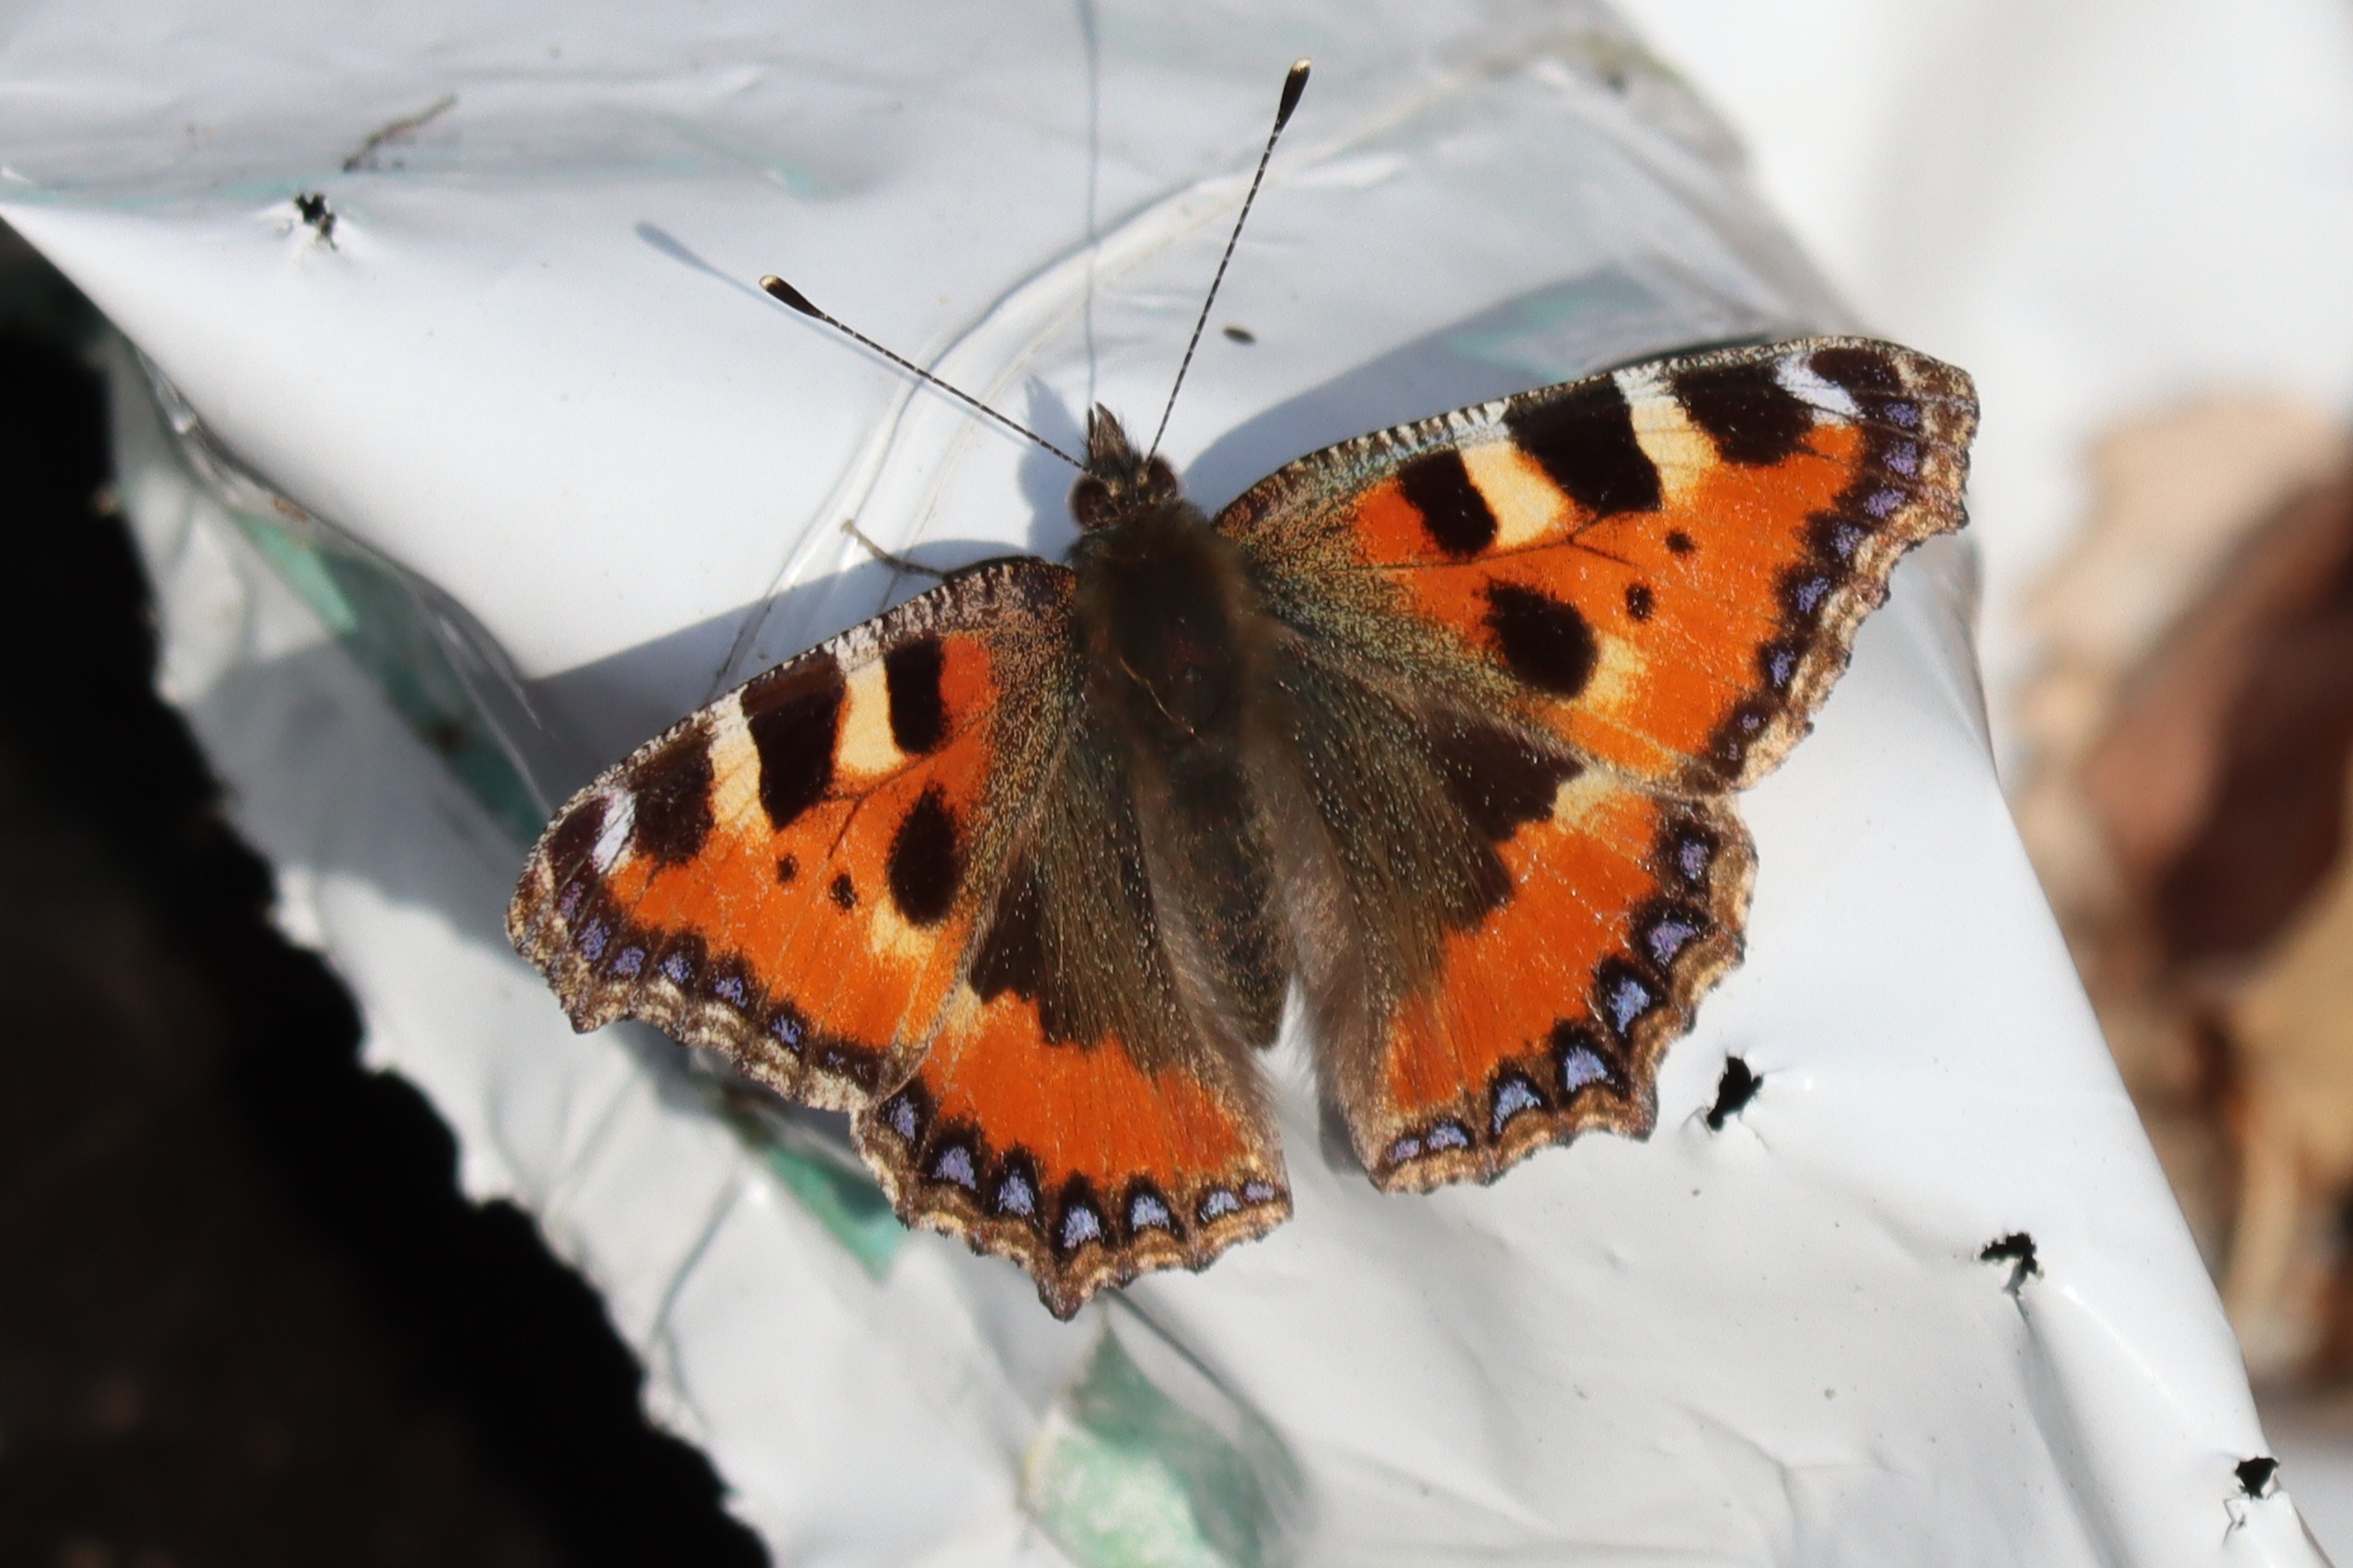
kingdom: Animalia
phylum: Arthropoda
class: Insecta
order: Lepidoptera
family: Nymphalidae
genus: Aglais
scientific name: Aglais urticae
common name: Nældens takvinge
